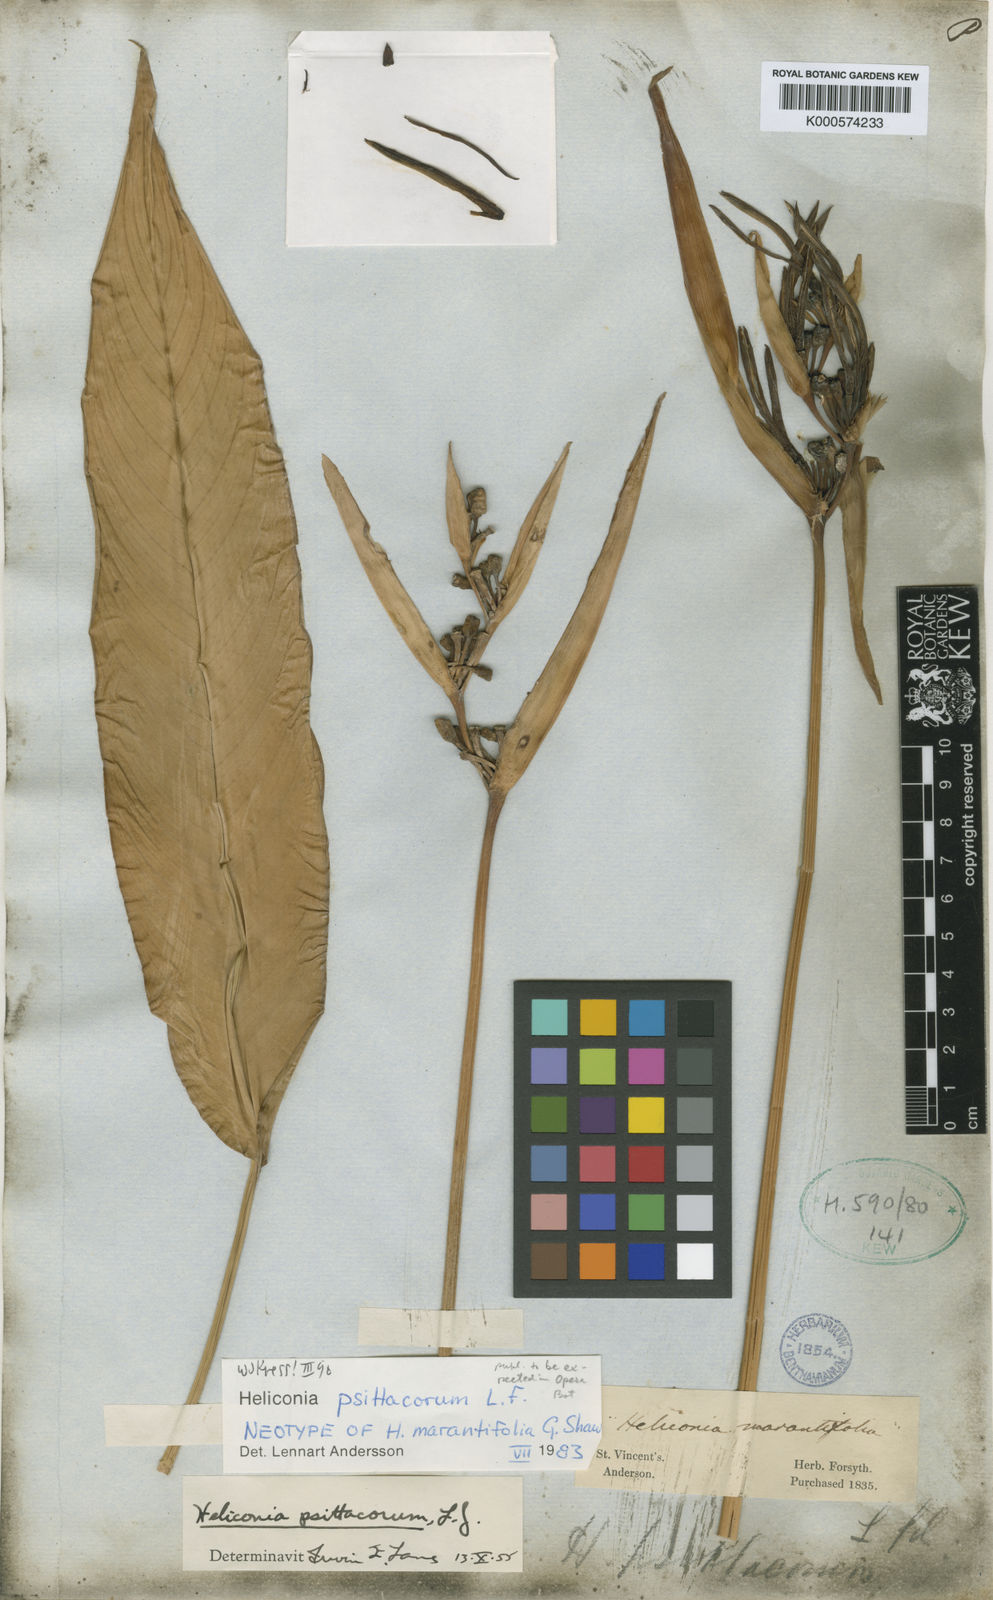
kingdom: Plantae
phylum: Tracheophyta
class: Liliopsida
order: Zingiberales
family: Heliconiaceae
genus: Heliconia
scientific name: Heliconia psittacorum
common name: Parrot's-flower
